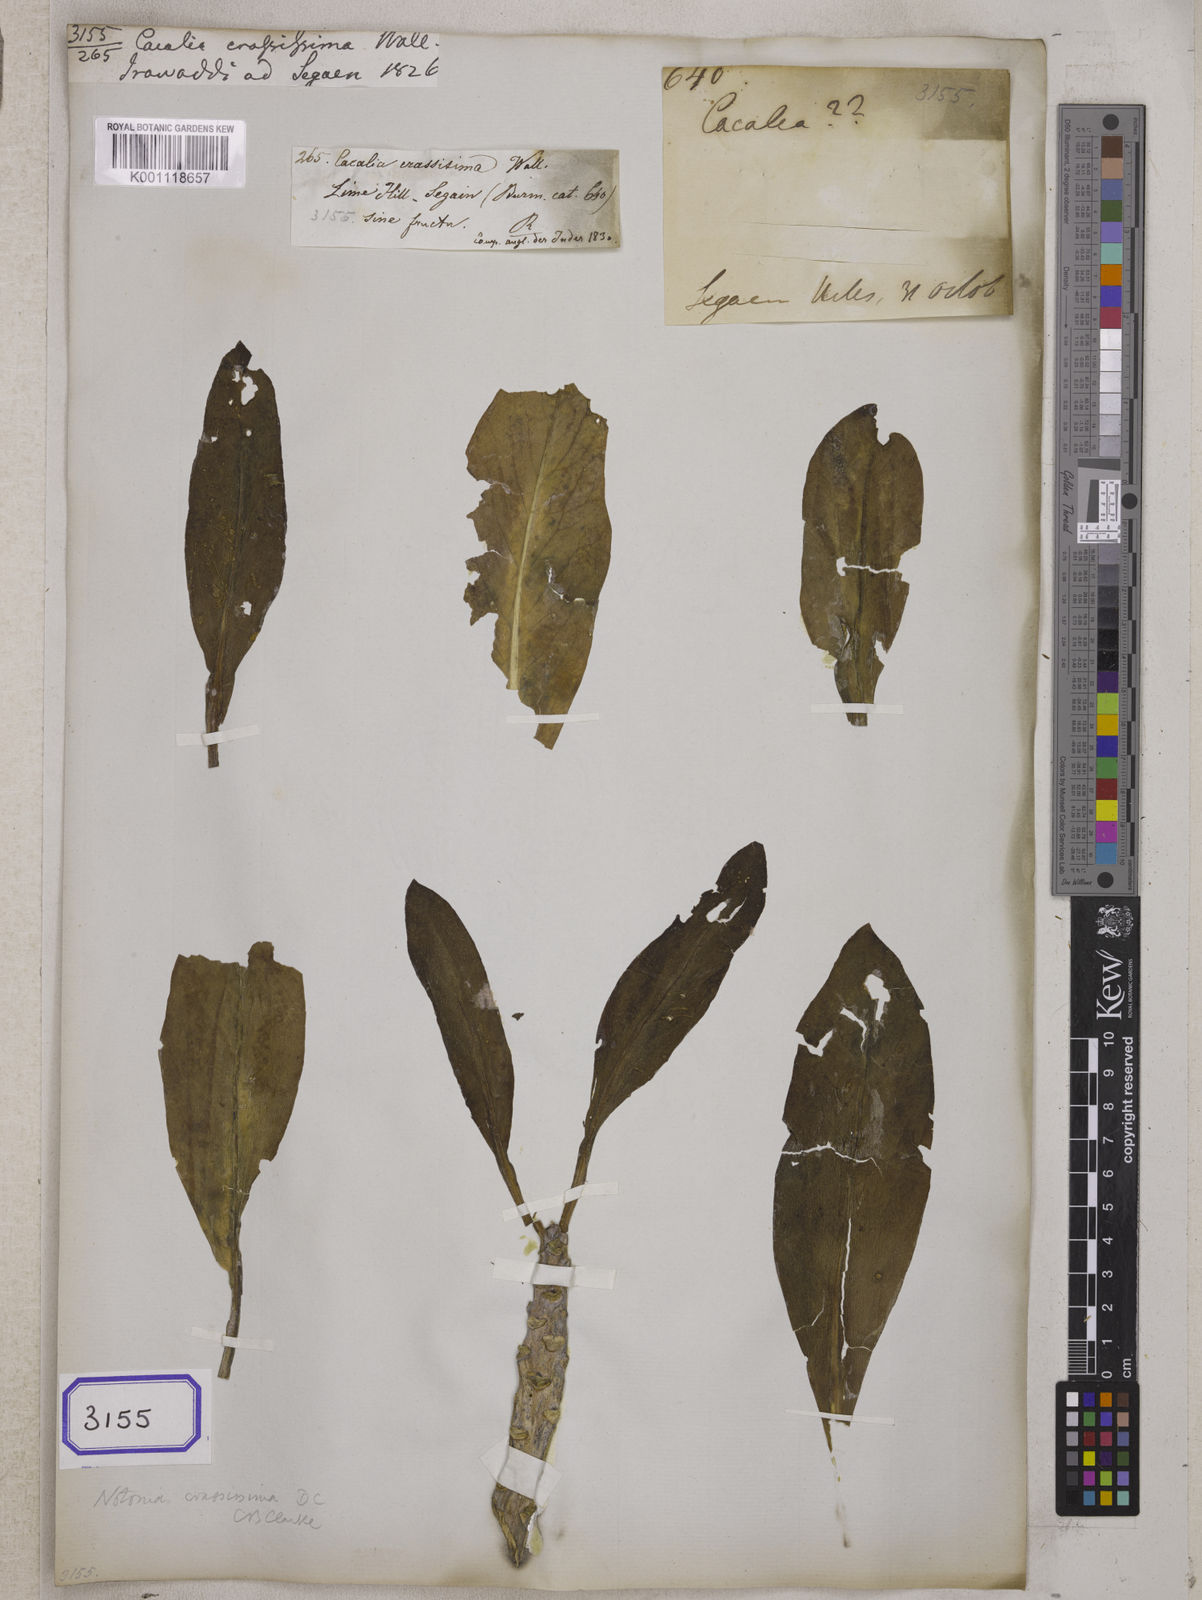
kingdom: Plantae
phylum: Tracheophyta
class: Magnoliopsida
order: Asterales
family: Asteraceae
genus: Kleinia
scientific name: Kleinia grandiflora
